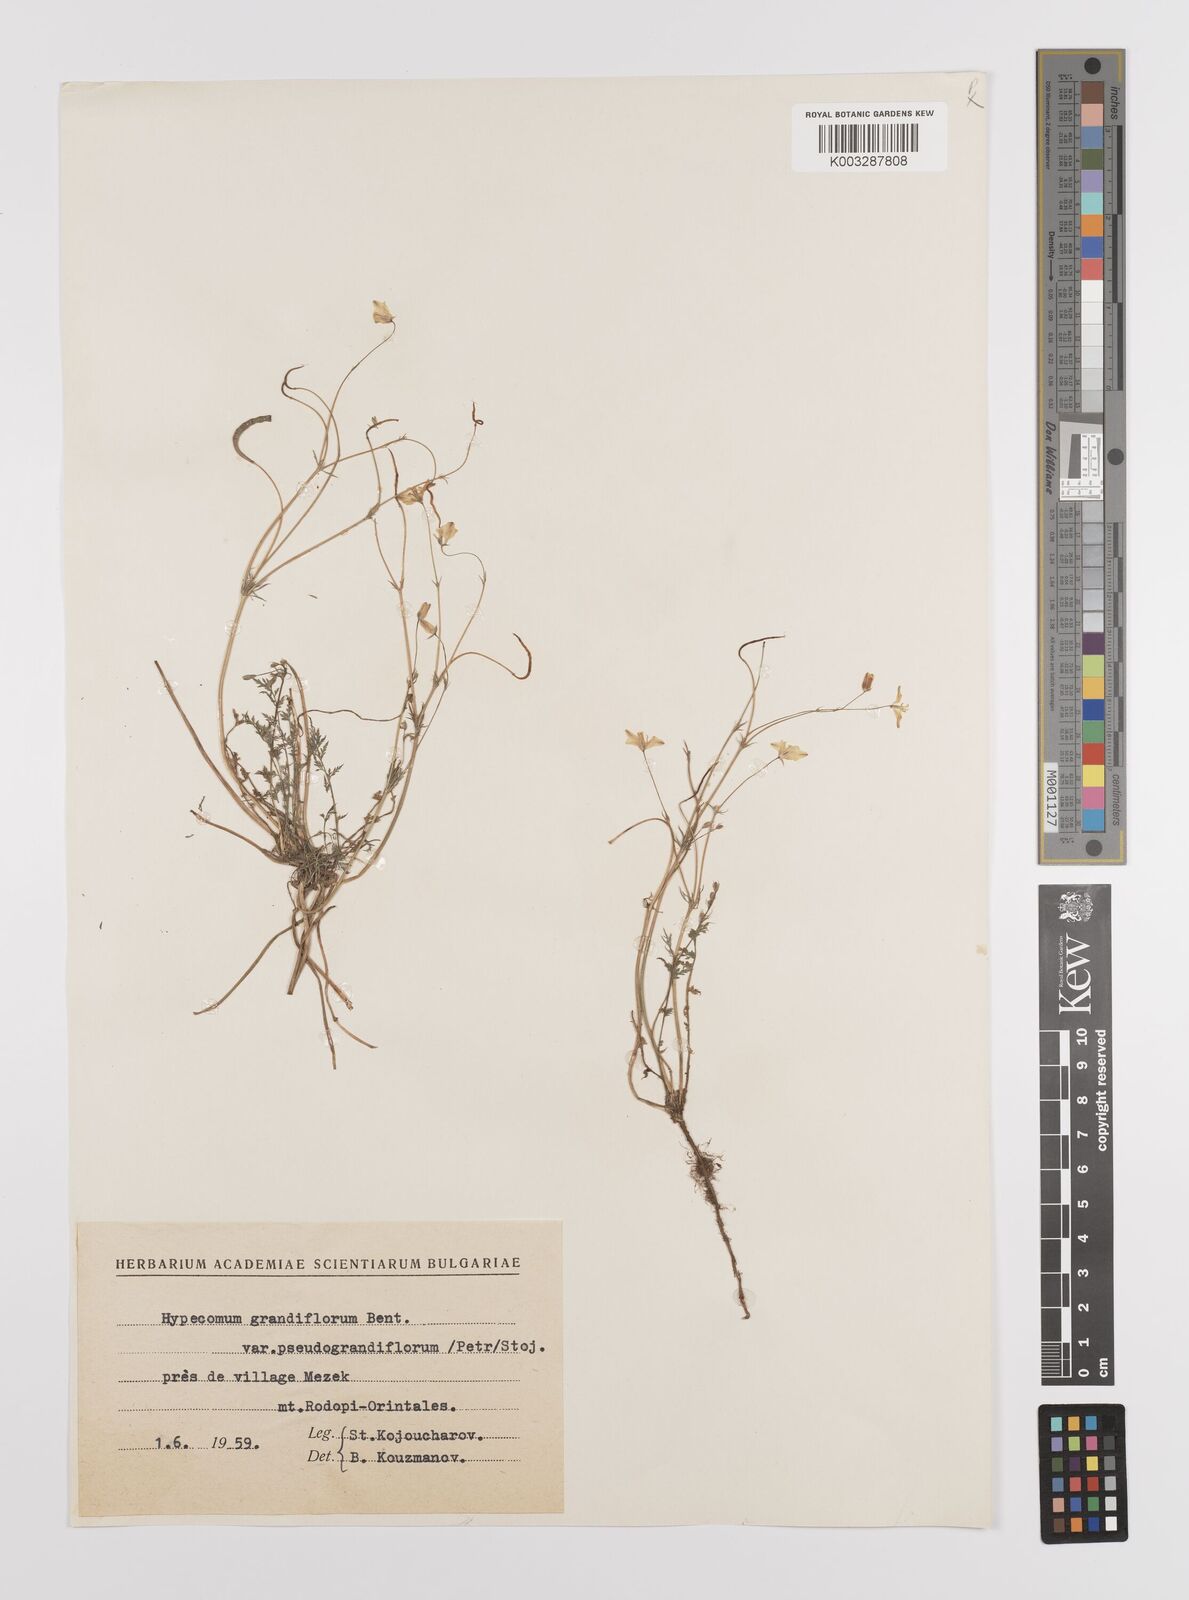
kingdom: Plantae
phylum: Tracheophyta
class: Magnoliopsida
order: Ranunculales
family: Papaveraceae
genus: Hypecoum
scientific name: Hypecoum imberbe
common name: Sicklefruit hypecoum
